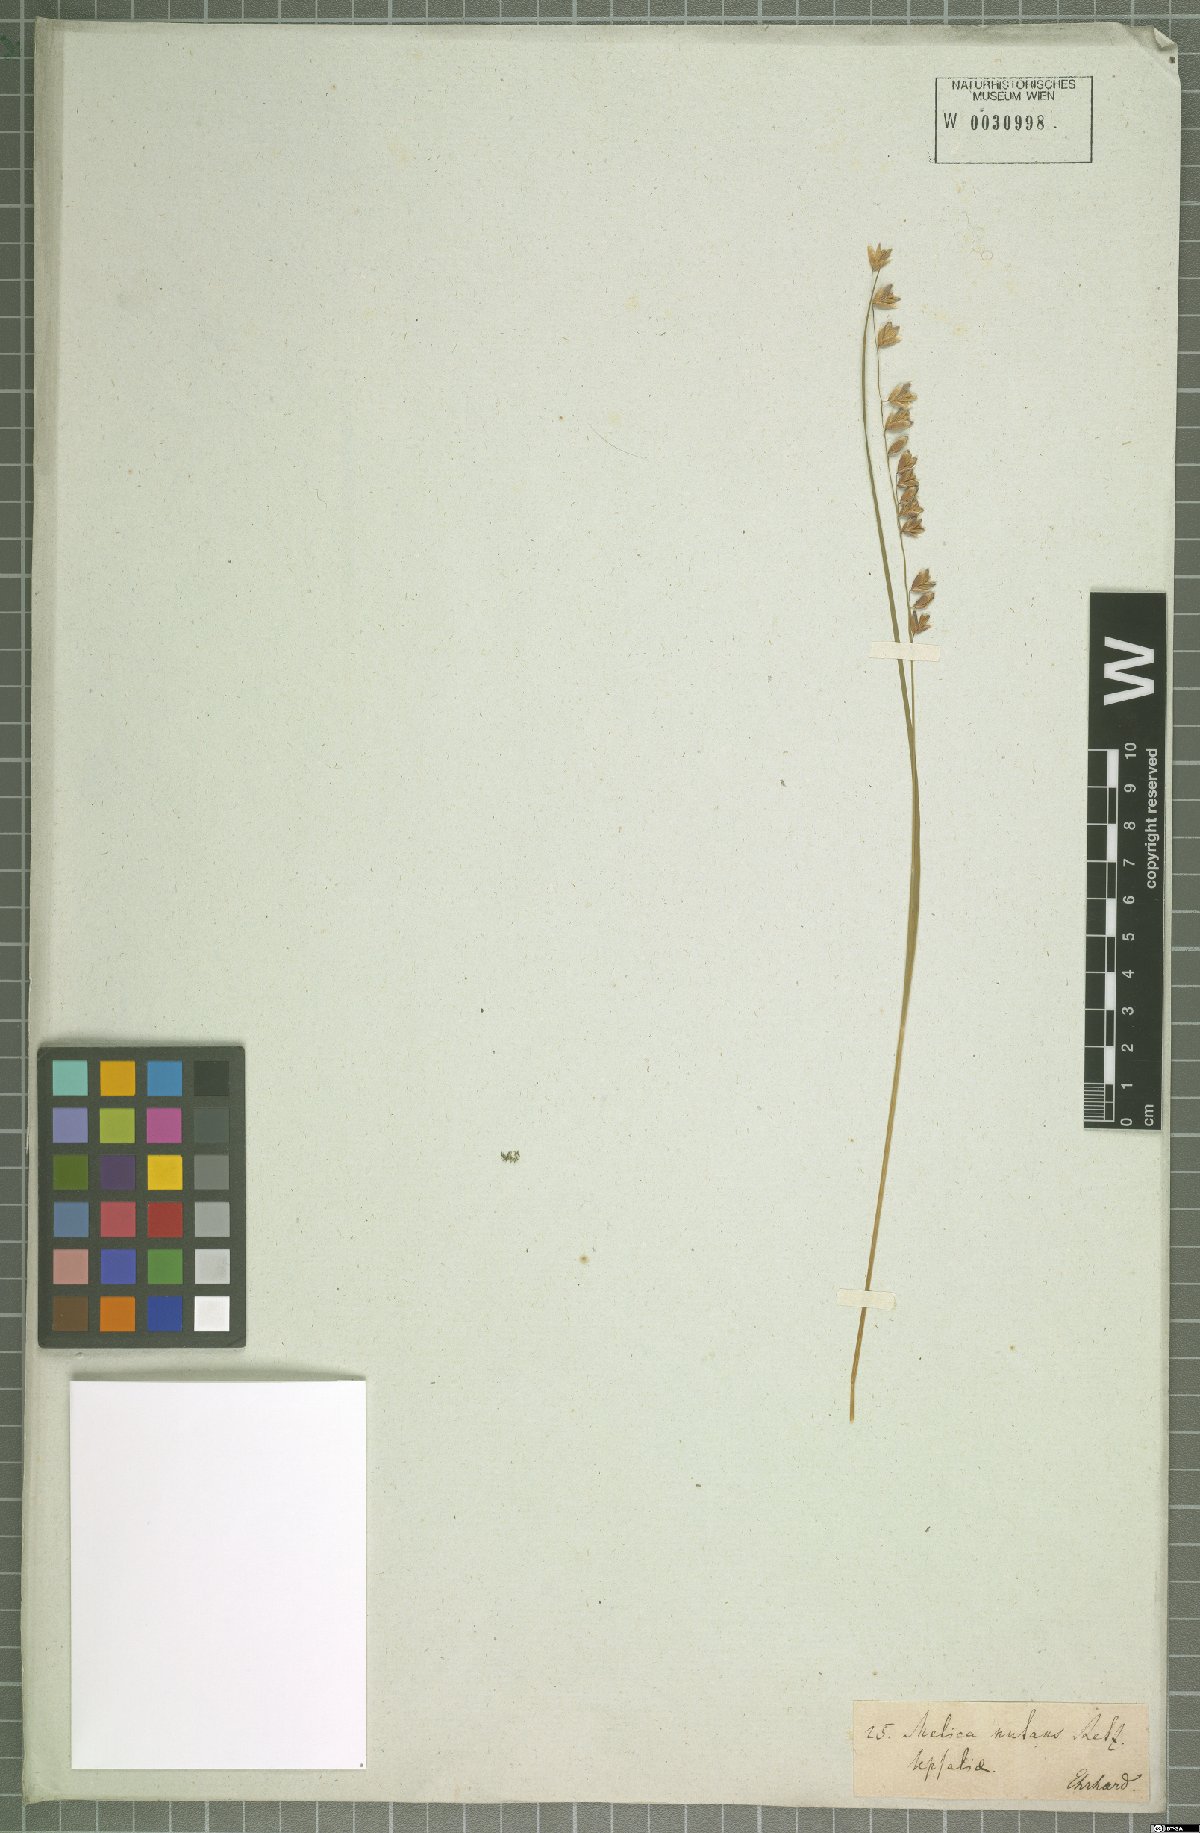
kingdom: Plantae
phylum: Tracheophyta
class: Liliopsida
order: Poales
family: Poaceae
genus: Melica
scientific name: Melica nutans
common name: Mountain melick
